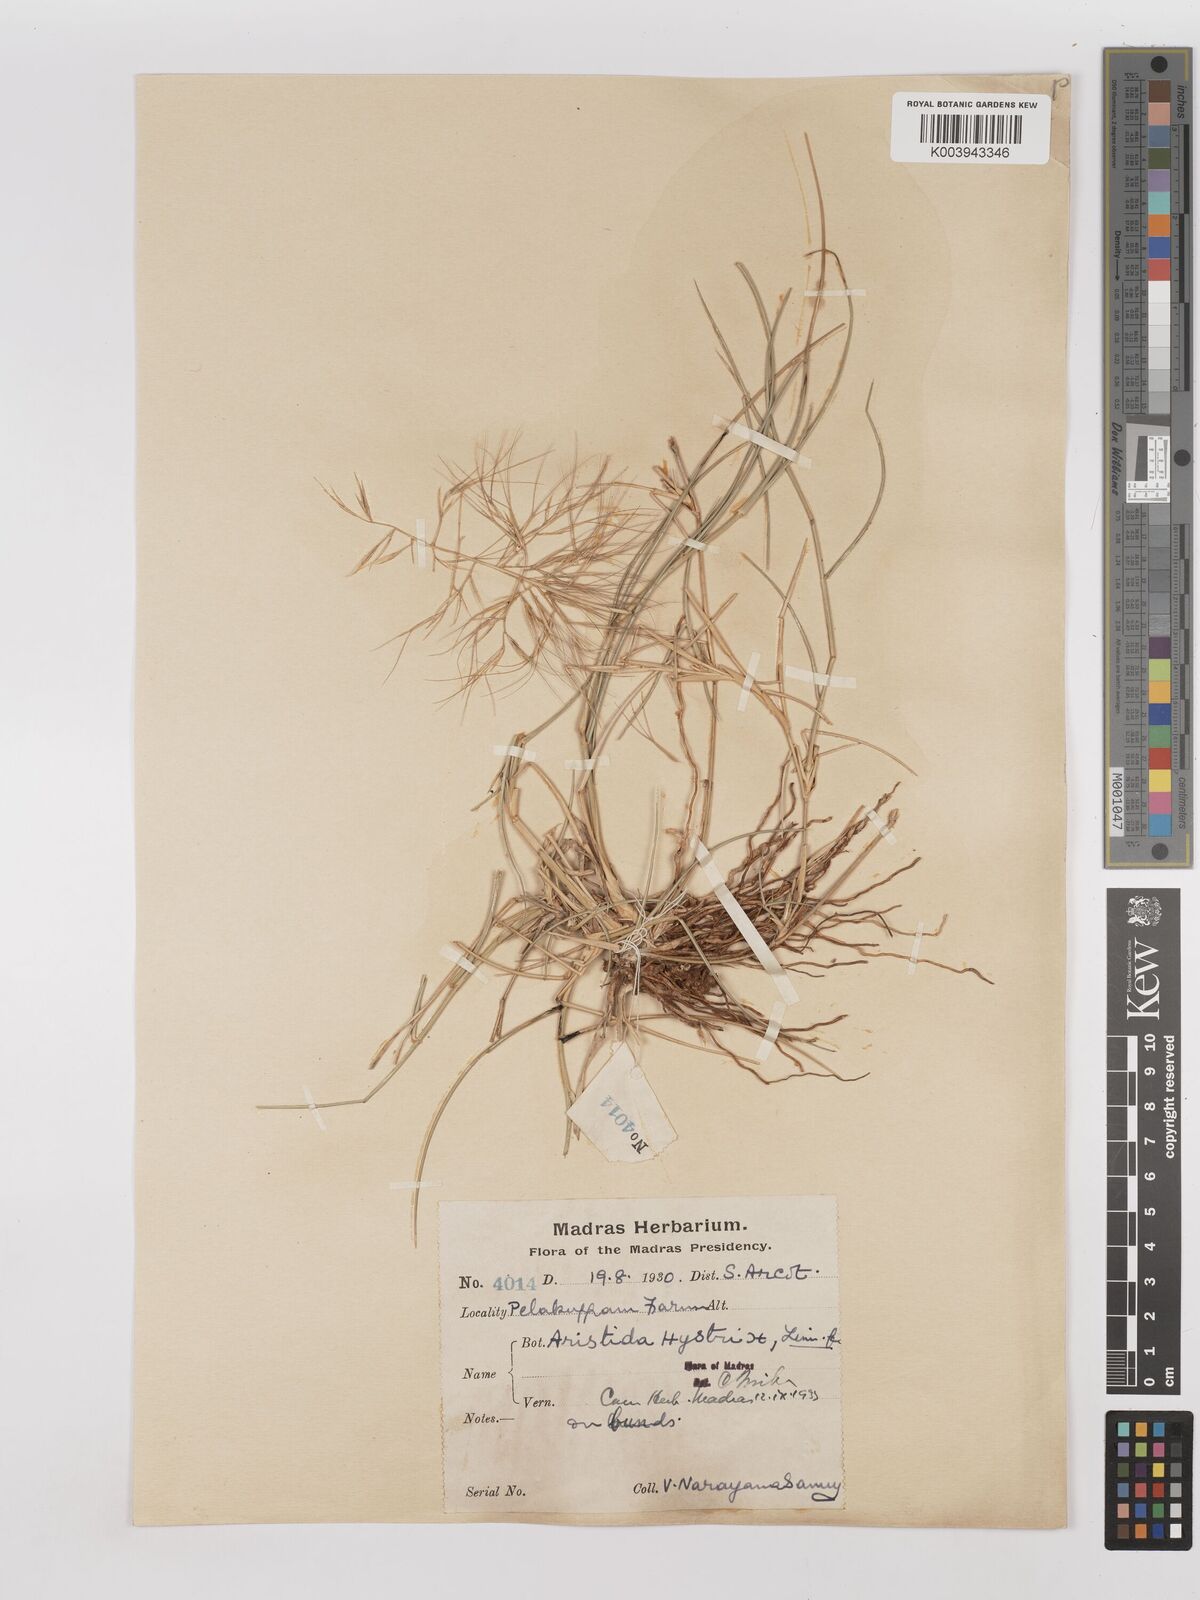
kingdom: Plantae
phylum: Tracheophyta
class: Liliopsida
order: Poales
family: Poaceae
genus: Aristida
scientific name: Aristida hystrix
